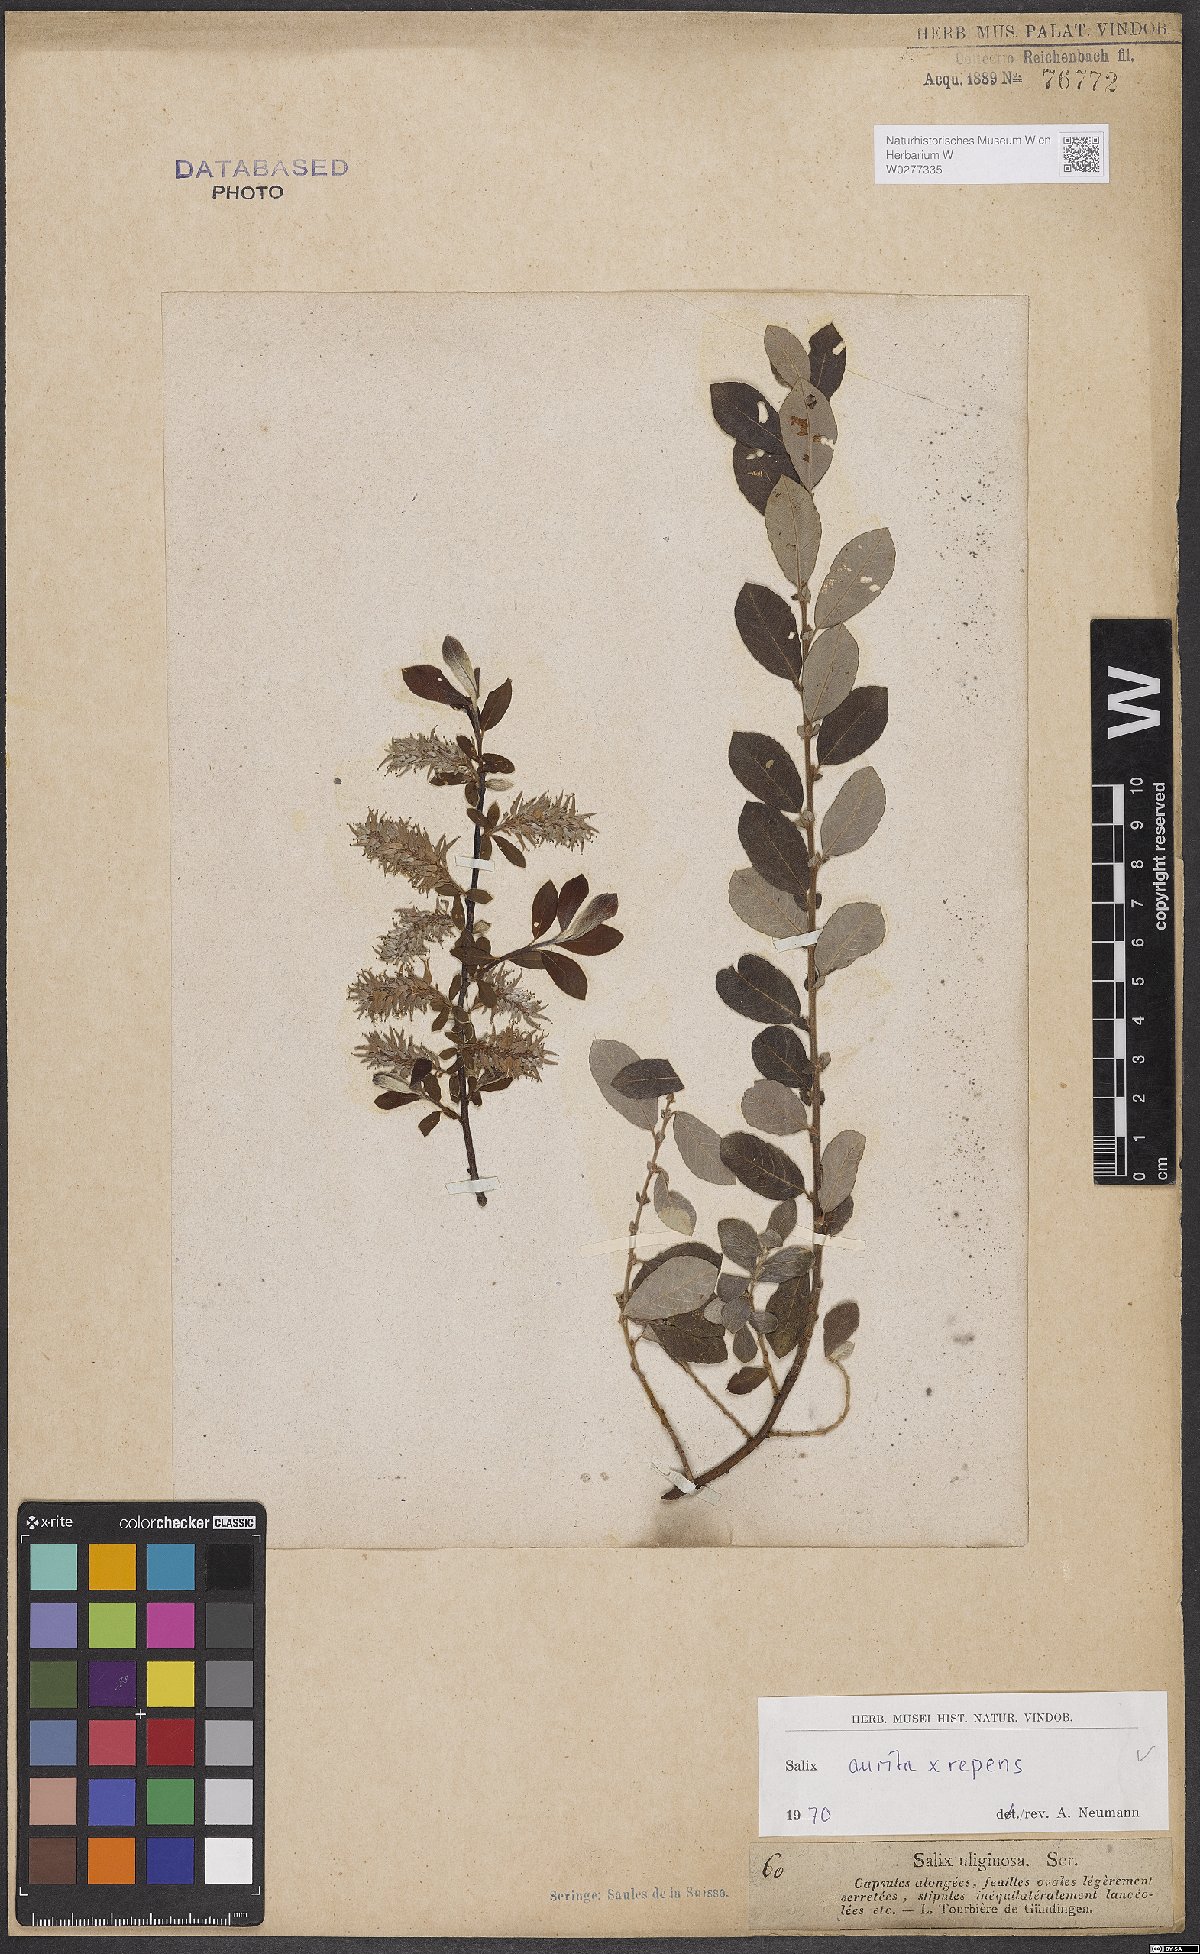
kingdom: Plantae
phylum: Tracheophyta
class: Magnoliopsida
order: Malpighiales
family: Salicaceae
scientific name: Salicaceae
